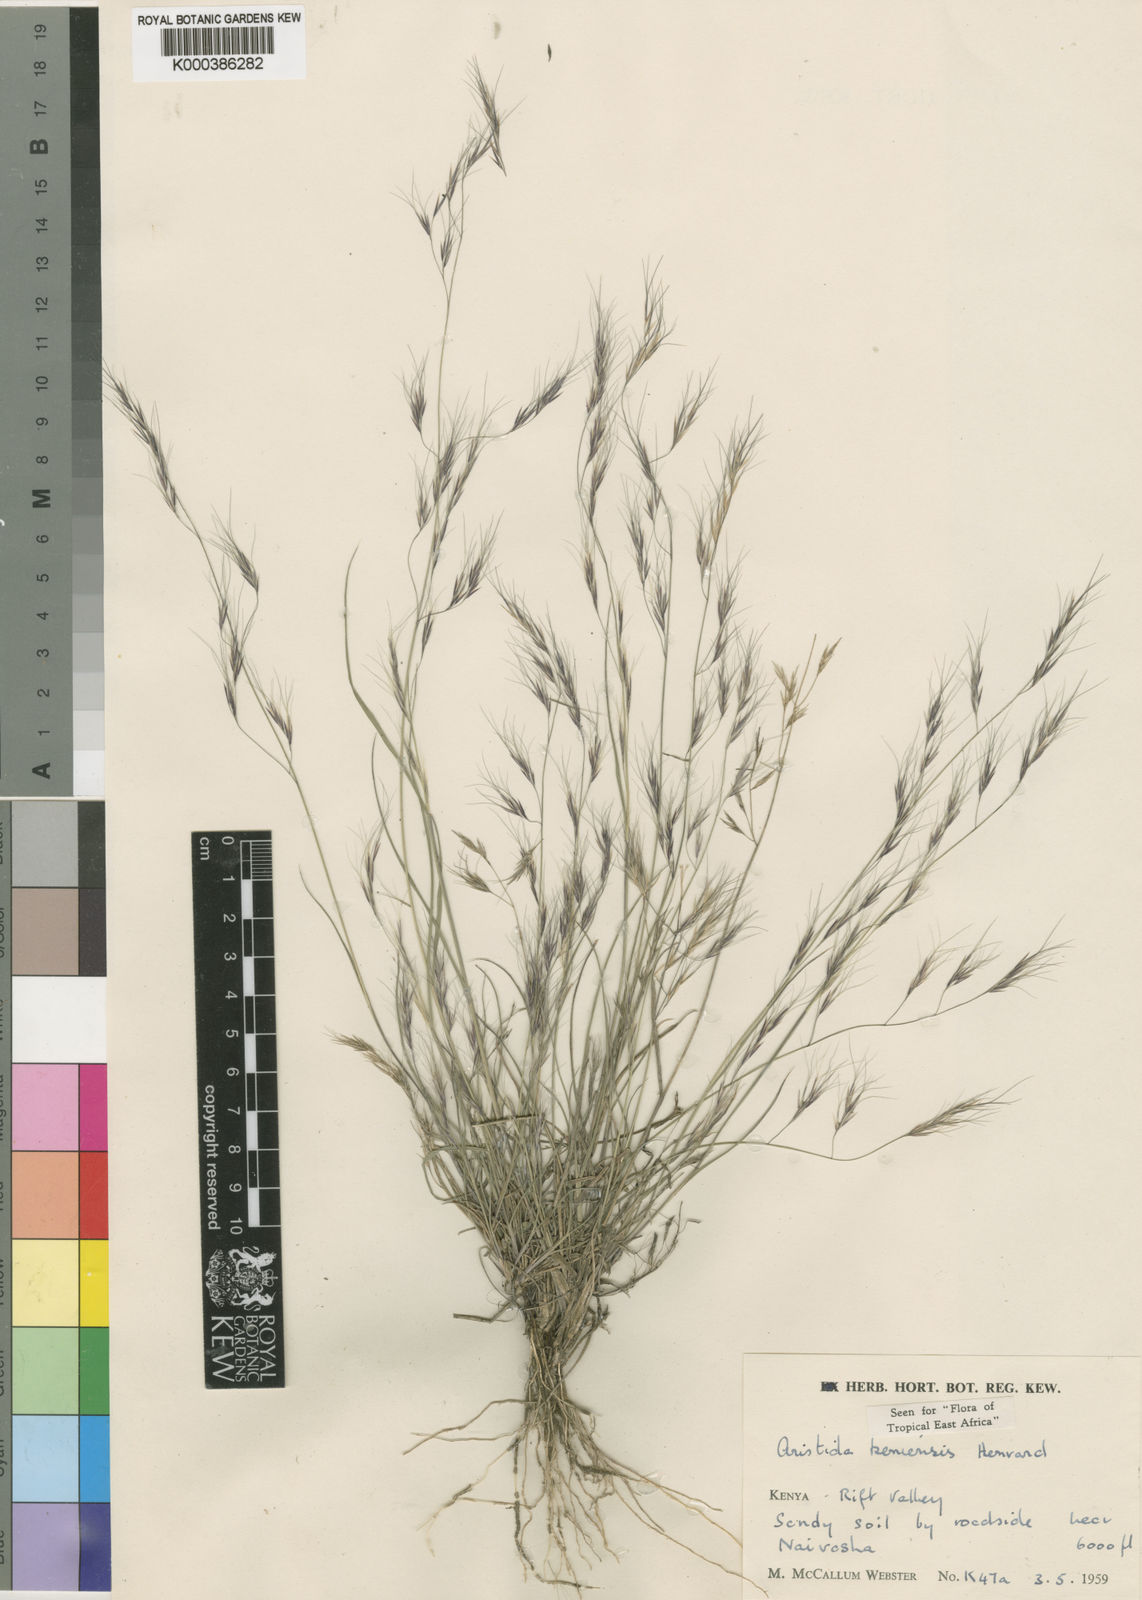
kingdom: Plantae
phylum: Tracheophyta
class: Liliopsida
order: Poales
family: Poaceae
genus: Aristida
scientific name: Aristida kenyensis
